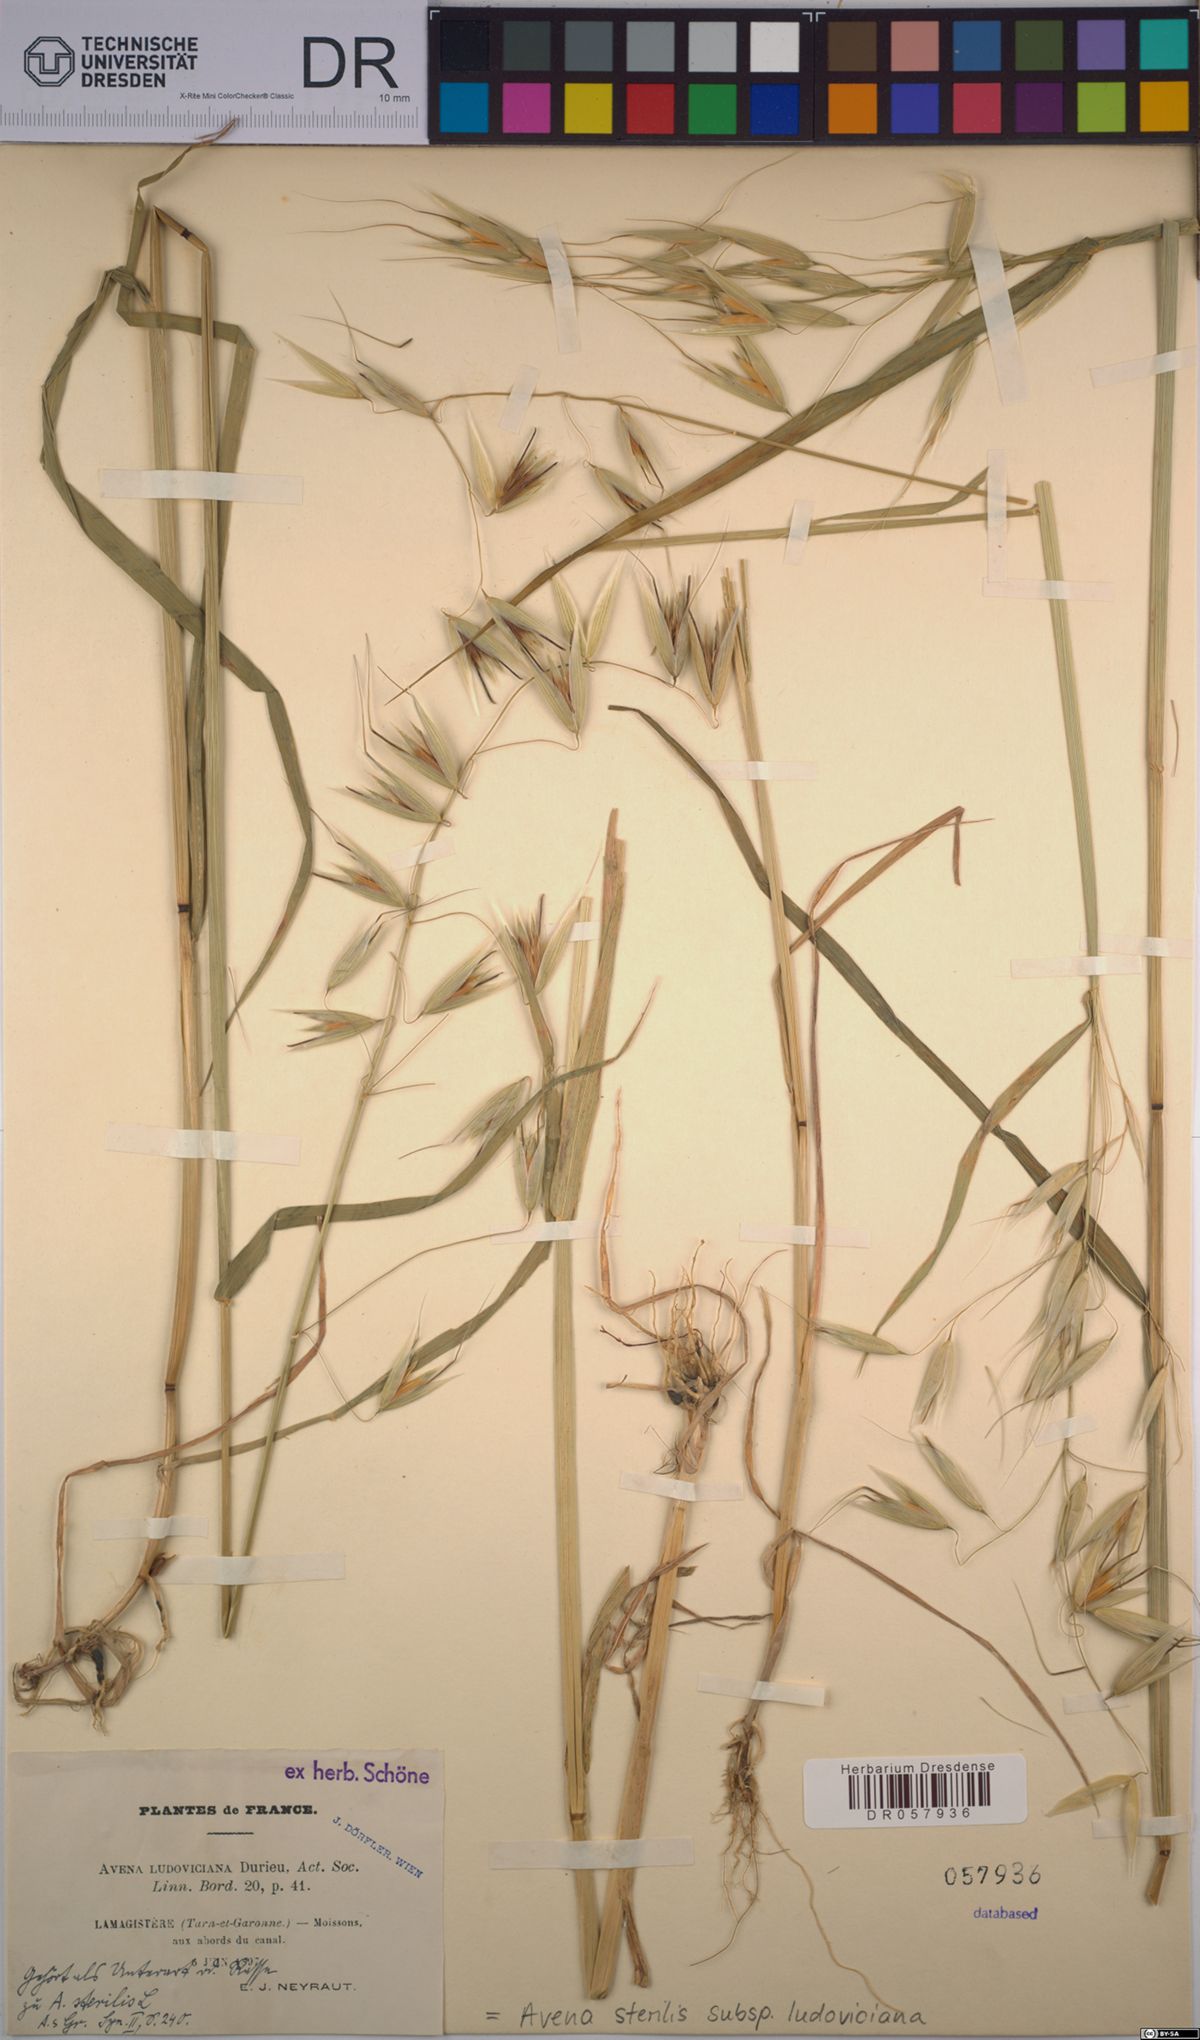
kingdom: Plantae
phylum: Tracheophyta
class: Liliopsida
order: Poales
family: Poaceae
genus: Avena
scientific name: Avena sterilis
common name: Animated oat
